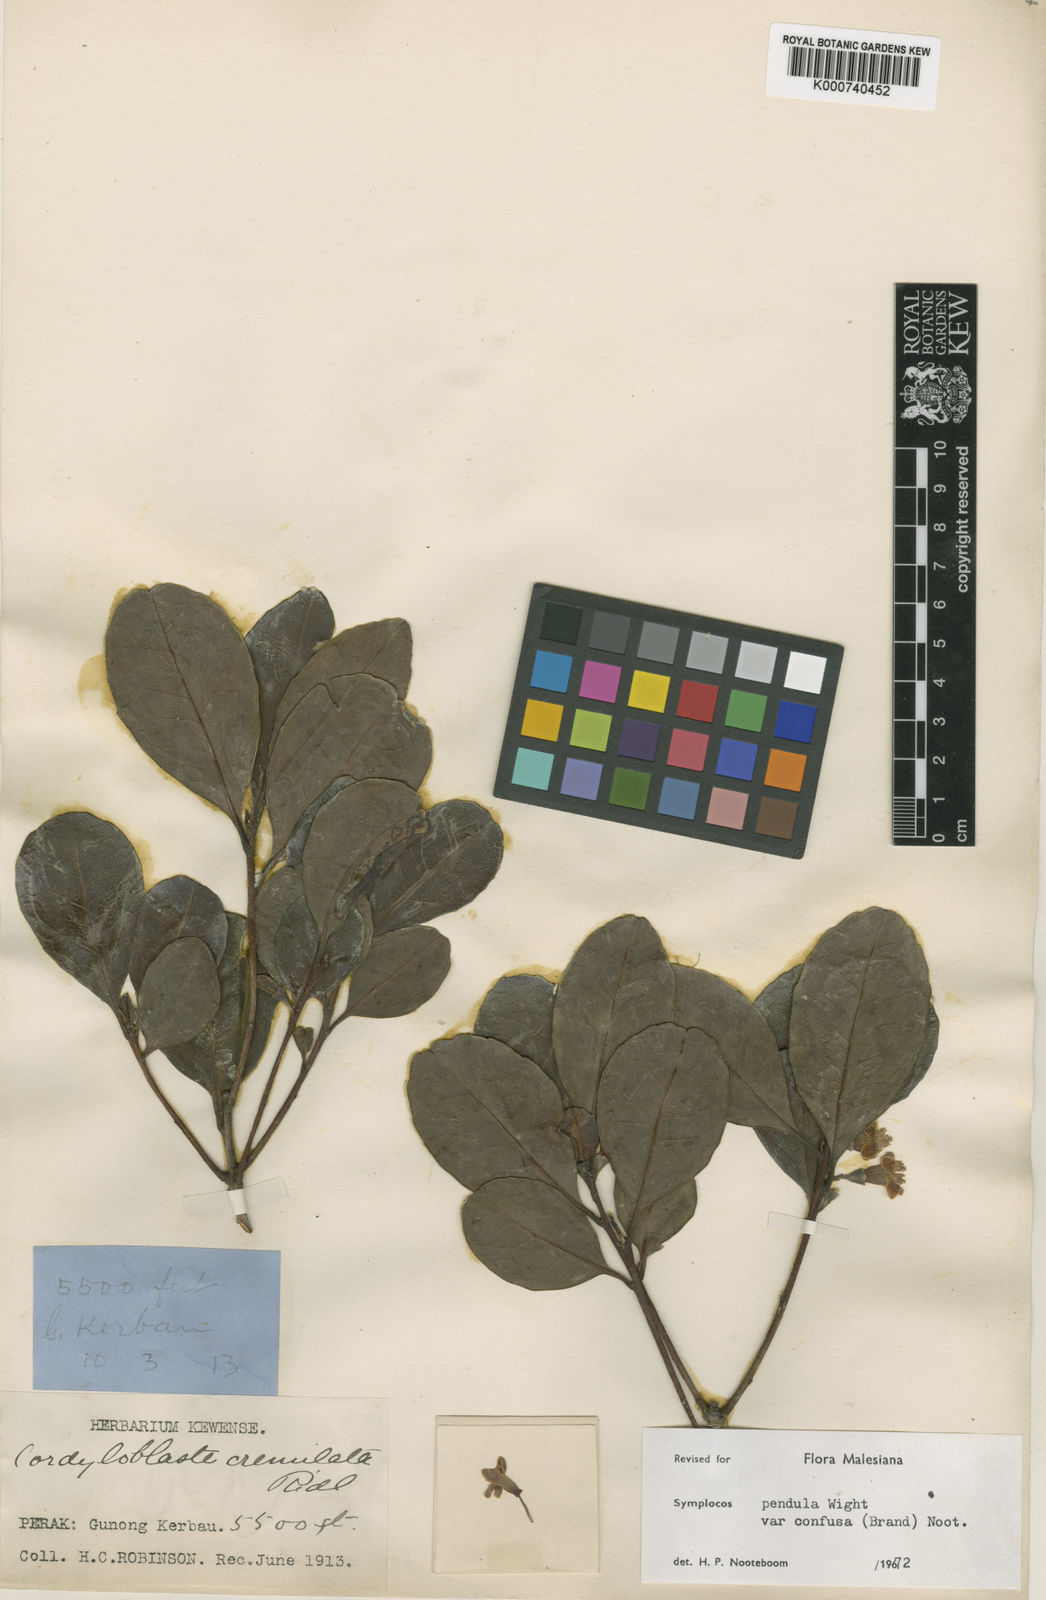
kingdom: Plantae
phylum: Tracheophyta
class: Magnoliopsida
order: Ericales
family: Symplocaceae
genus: Symplocos
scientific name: Symplocos pendula
